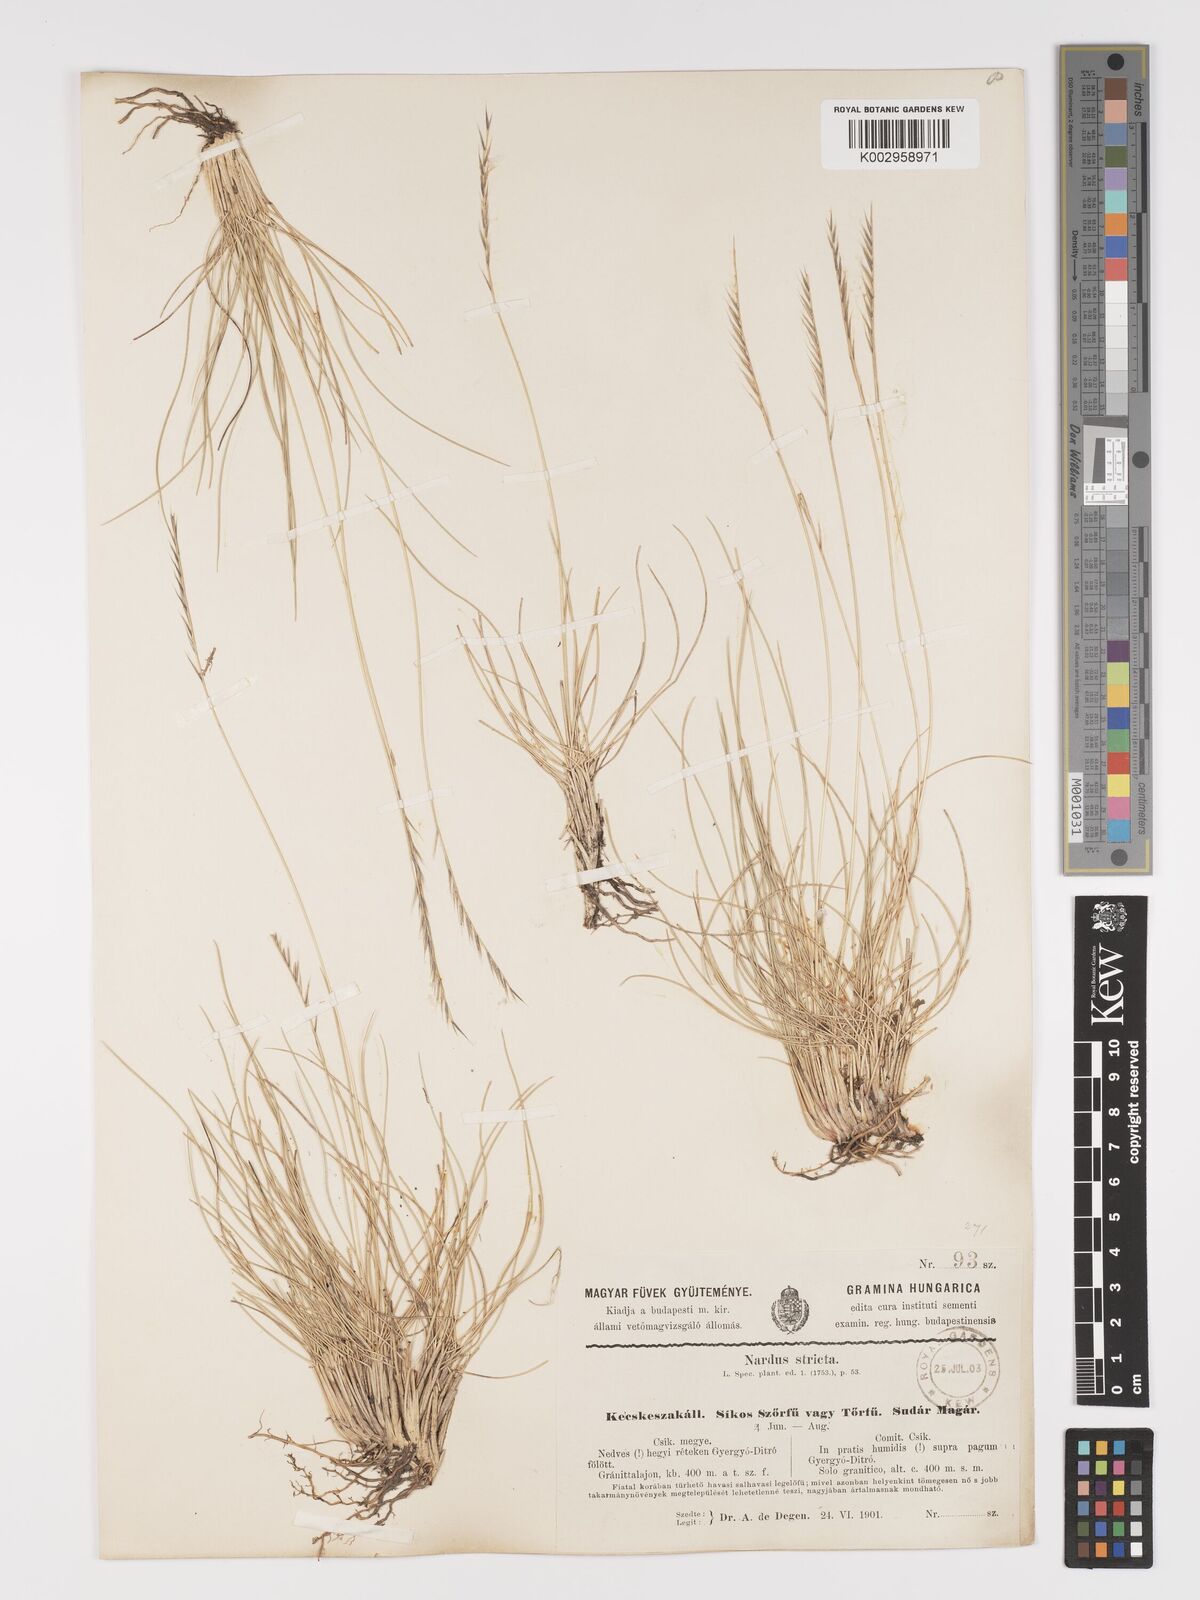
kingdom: Plantae
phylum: Tracheophyta
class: Liliopsida
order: Poales
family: Poaceae
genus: Nardus
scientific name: Nardus stricta
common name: Mat-grass
